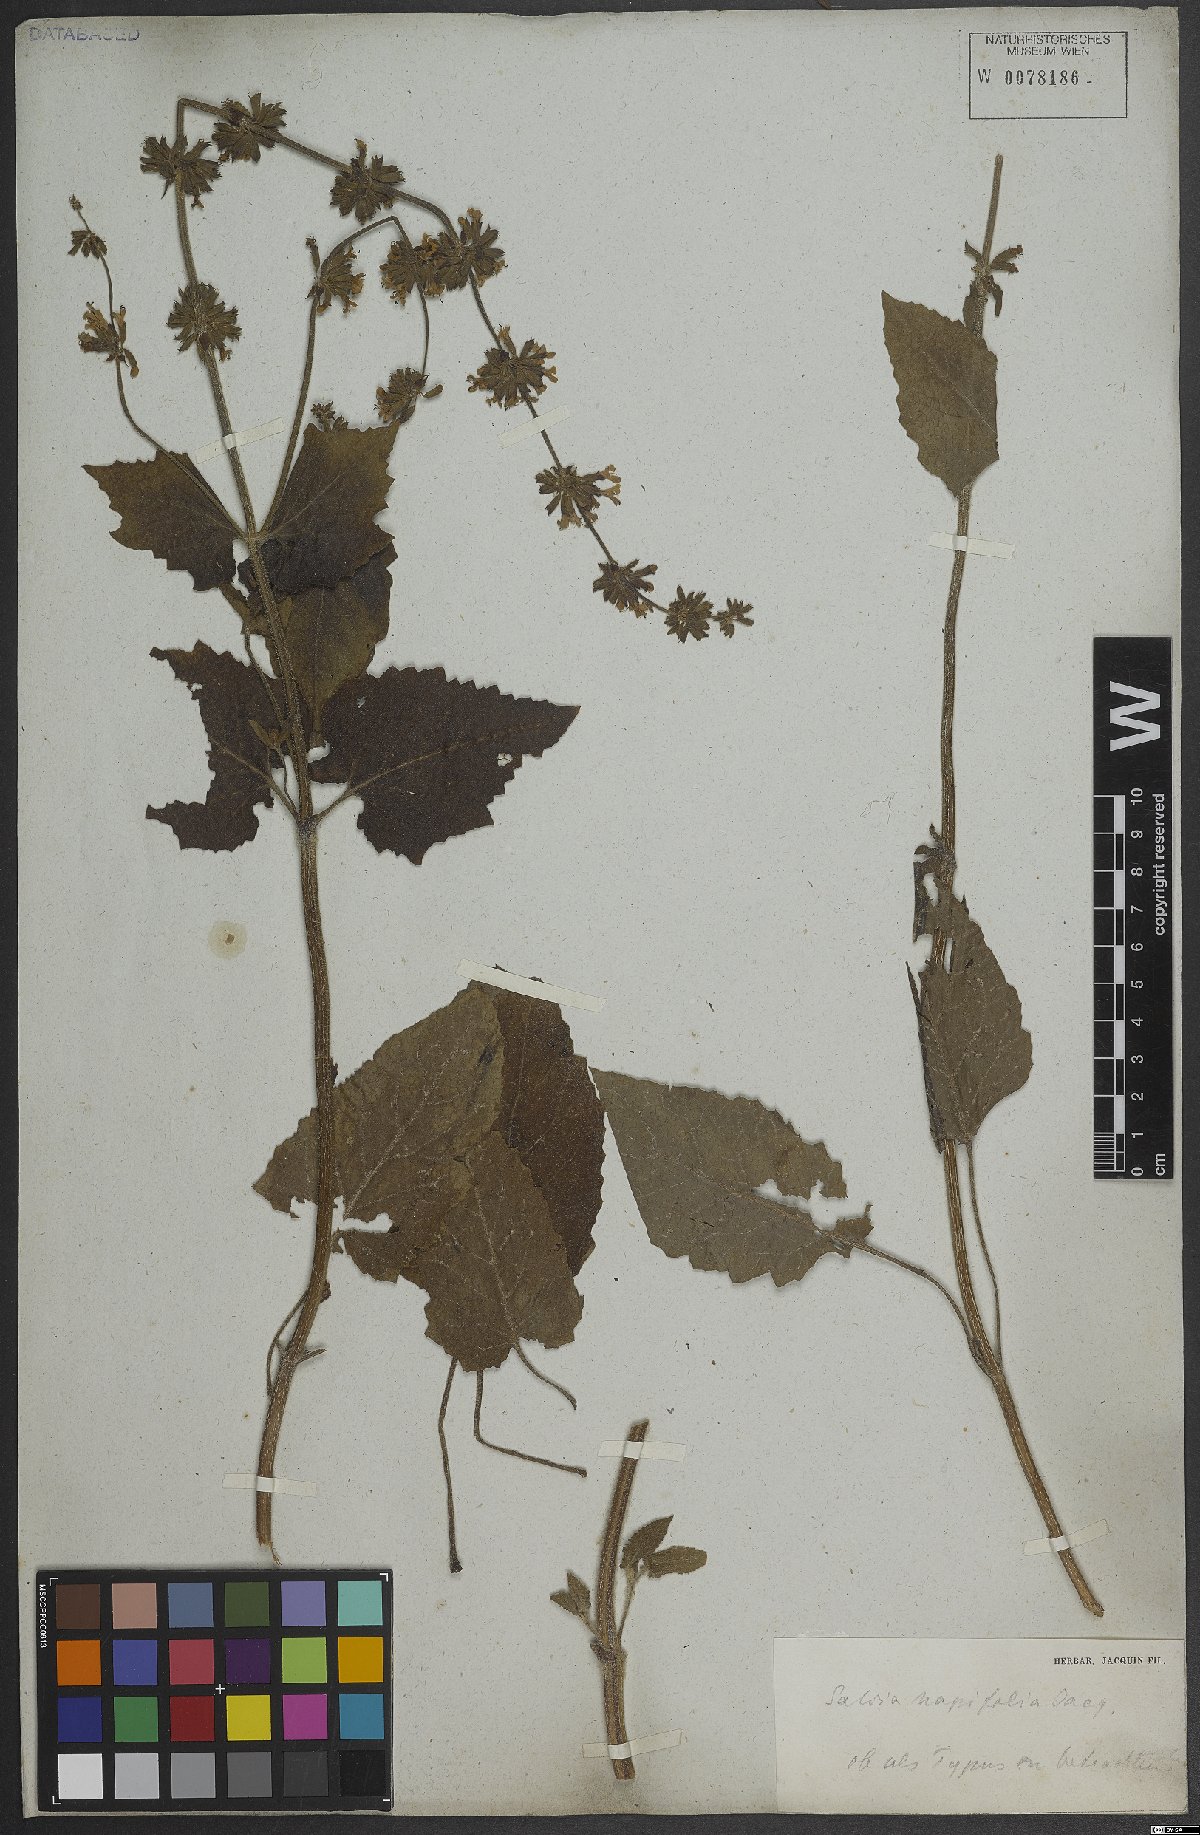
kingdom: Plantae
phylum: Tracheophyta
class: Magnoliopsida
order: Lamiales
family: Lamiaceae
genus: Salvia
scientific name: Salvia napifolia
